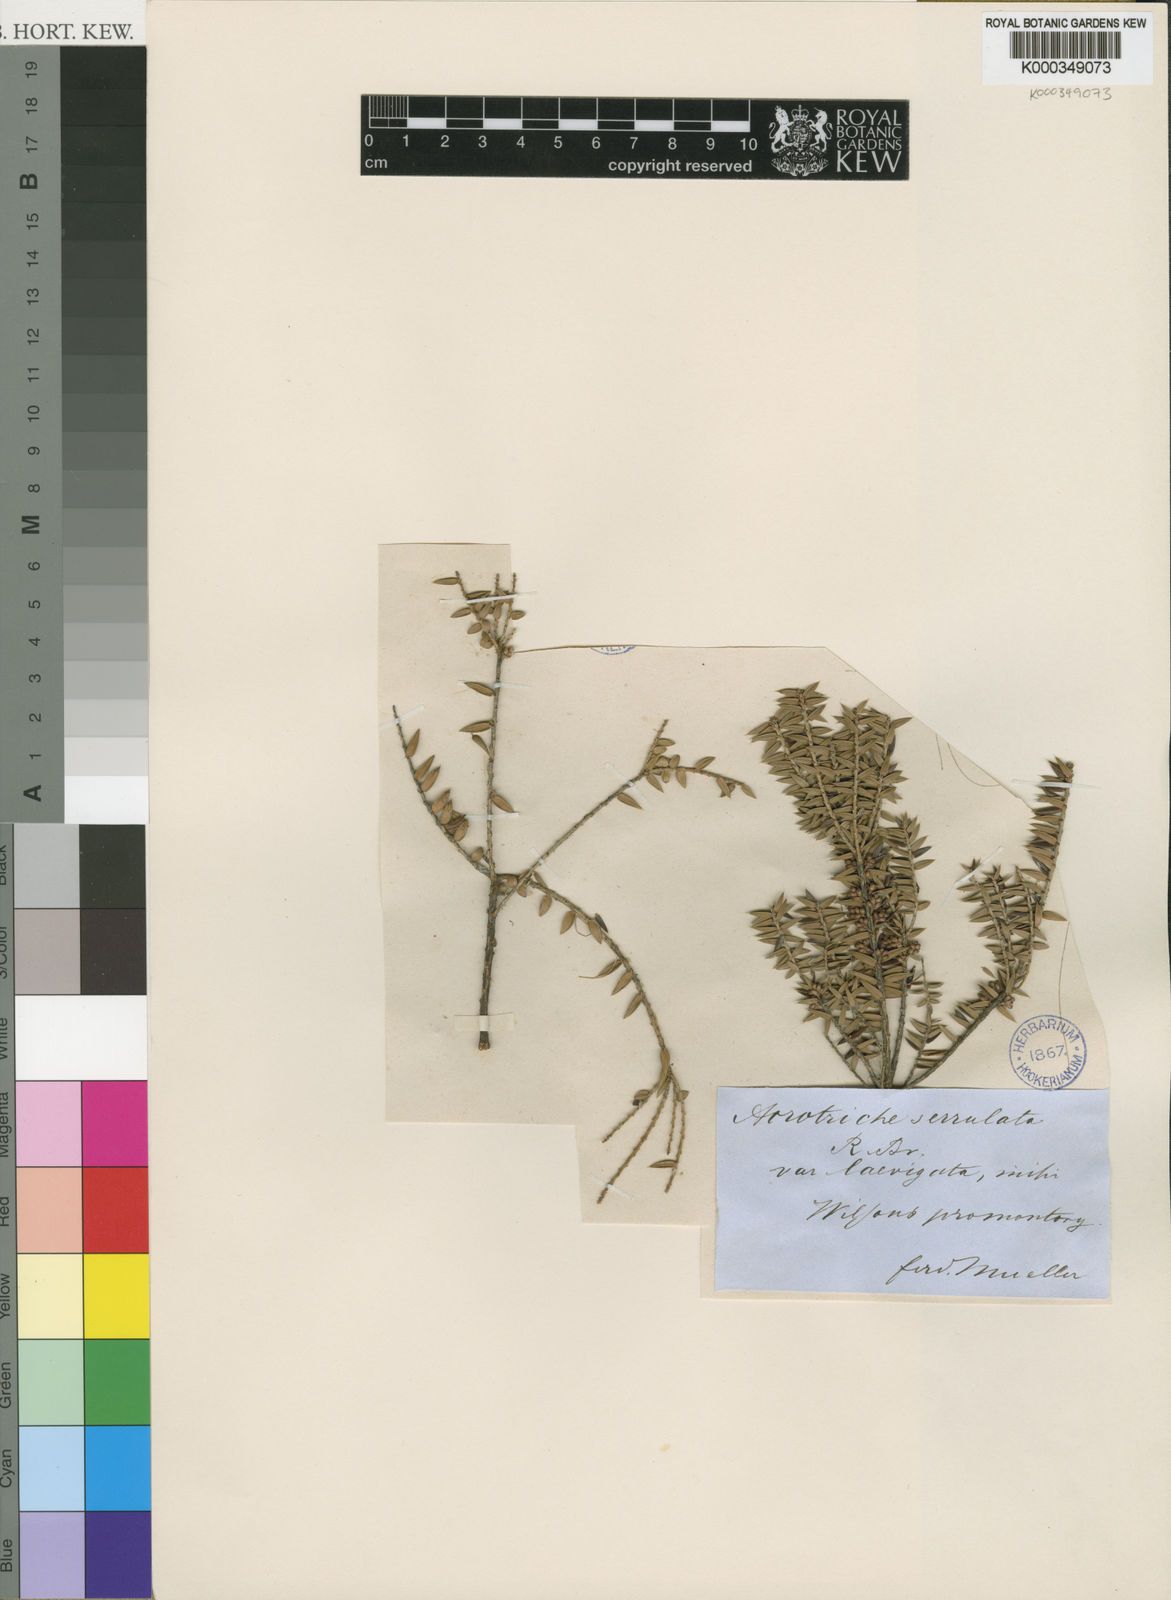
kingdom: Plantae
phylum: Tracheophyta
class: Magnoliopsida
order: Ericales
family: Ericaceae
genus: Acrotriche
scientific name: Acrotriche serrulata
